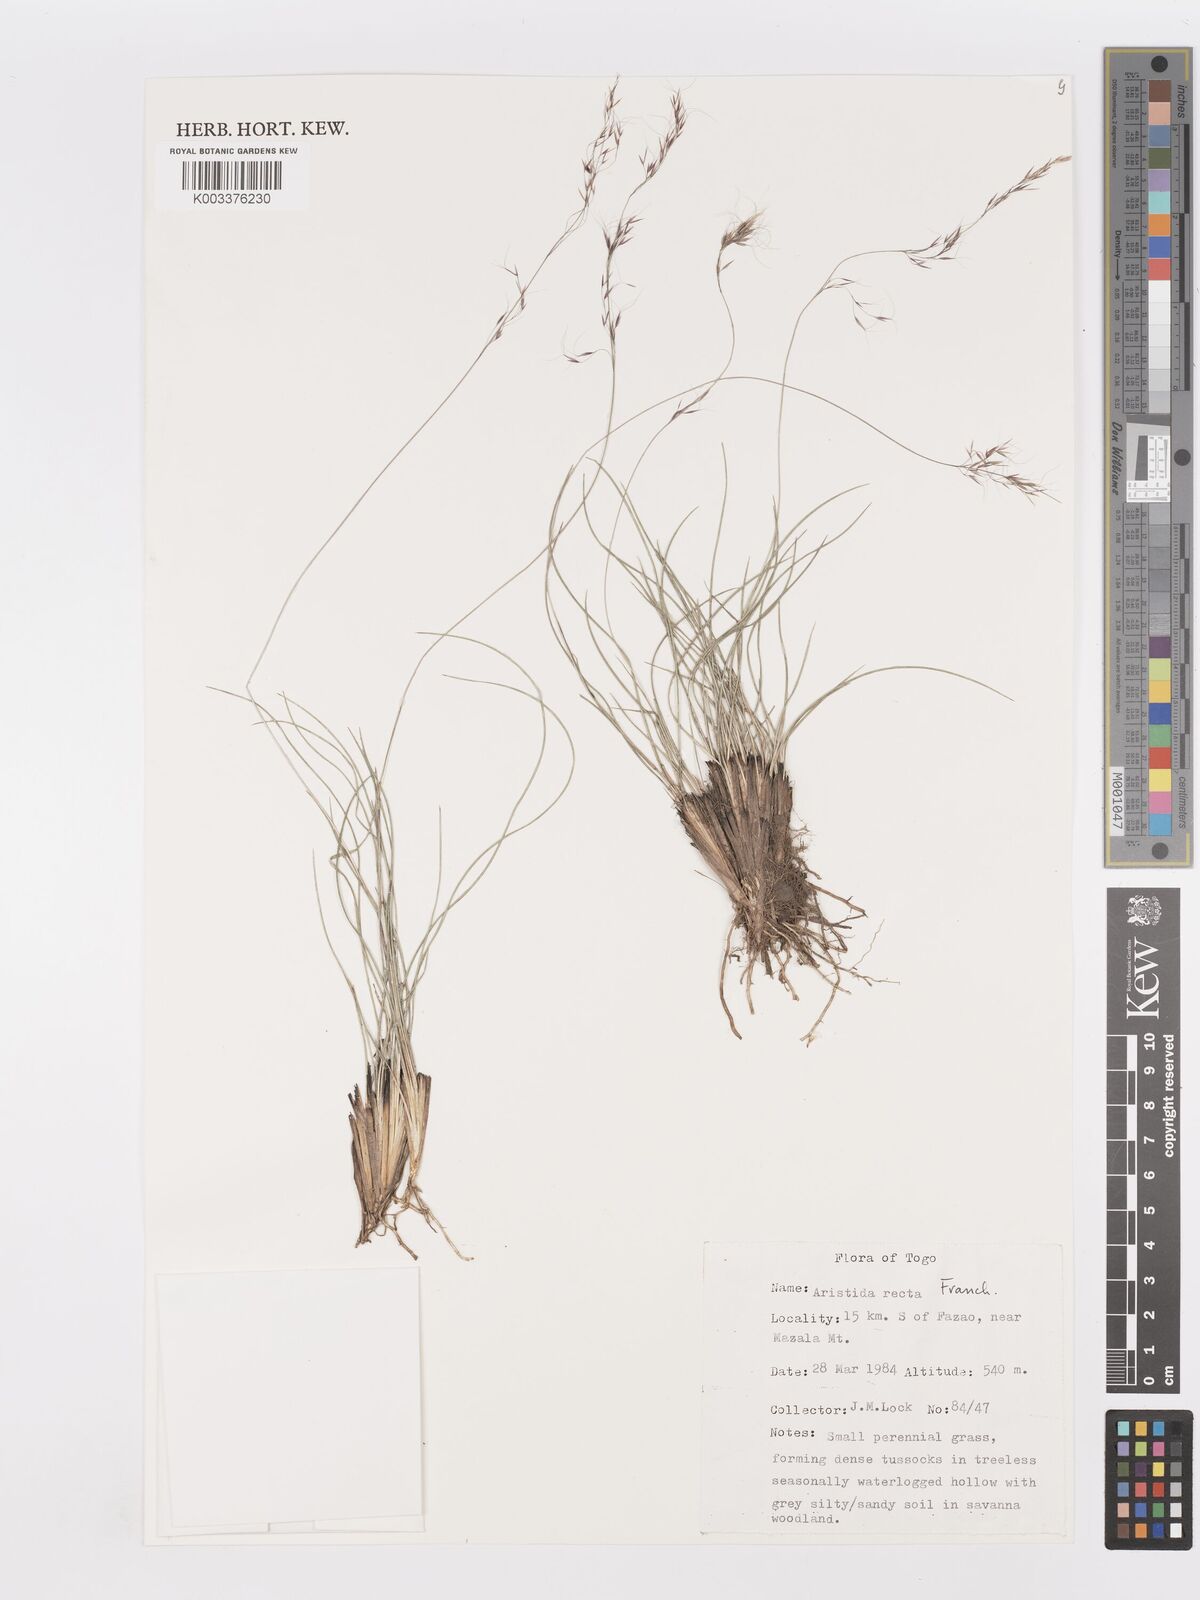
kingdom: Plantae
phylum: Tracheophyta
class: Liliopsida
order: Poales
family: Poaceae
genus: Aristida
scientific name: Aristida recta
